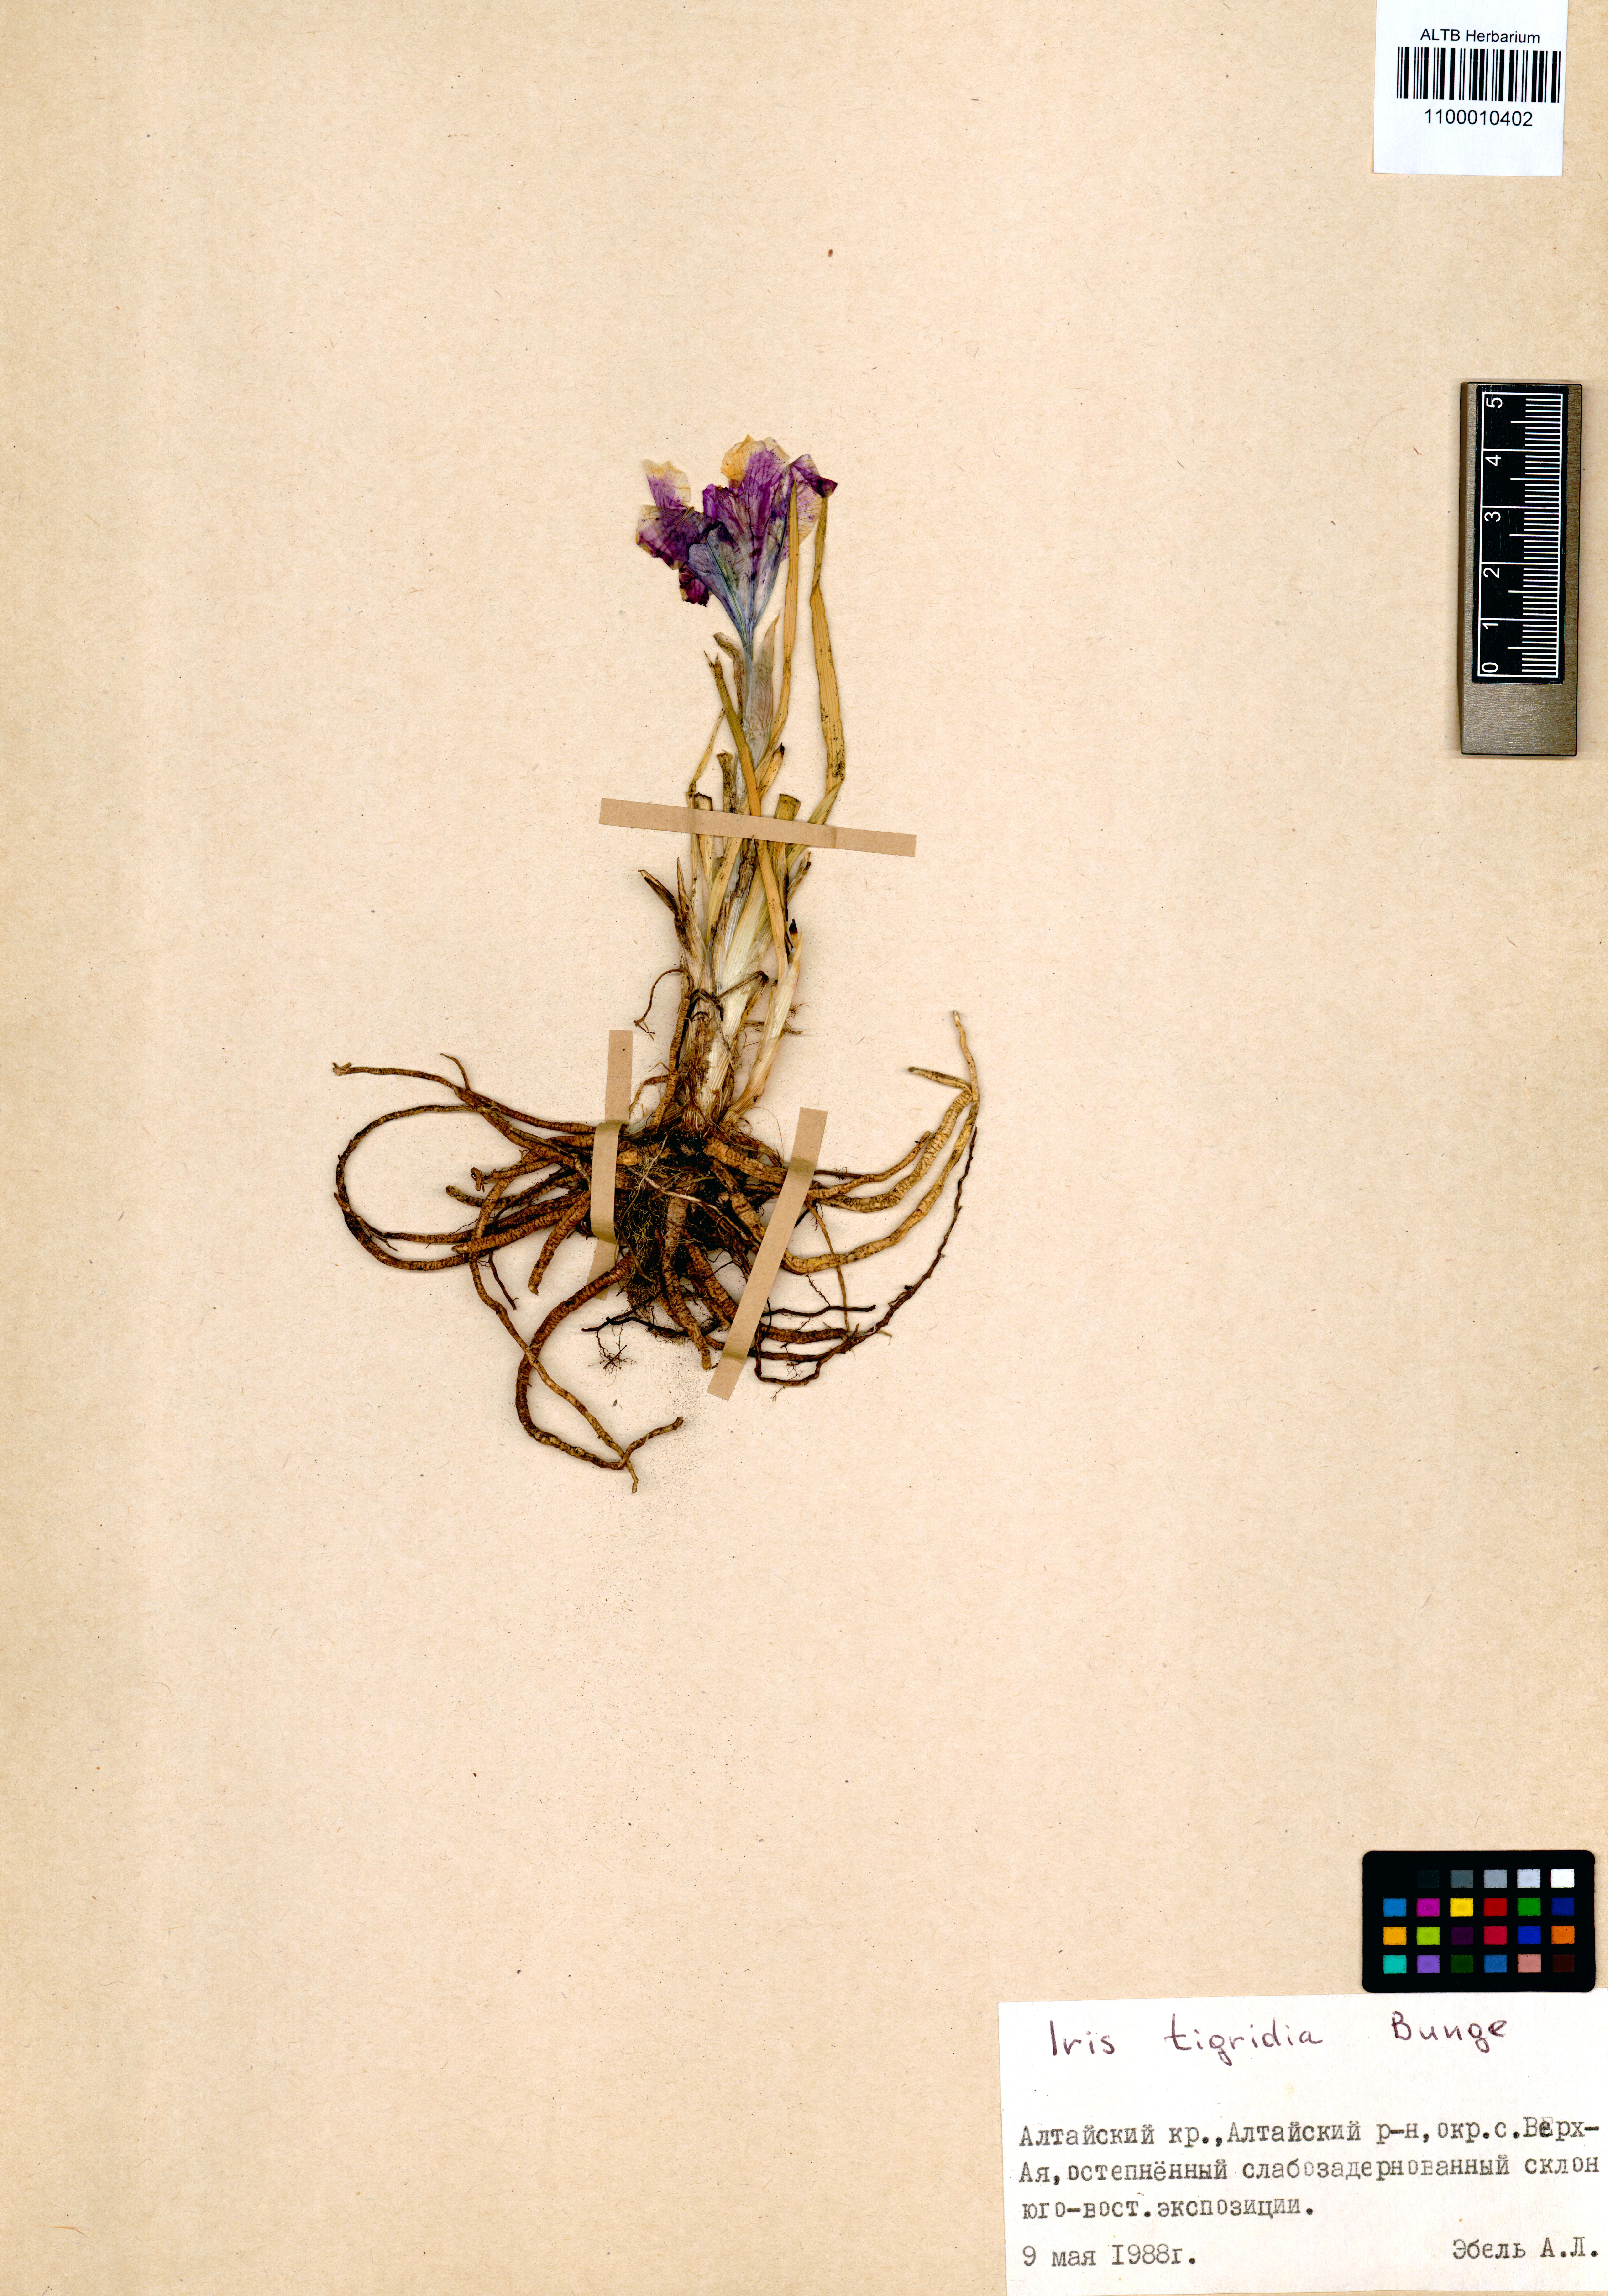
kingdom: Plantae
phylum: Tracheophyta
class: Liliopsida
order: Asparagales
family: Iridaceae
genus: Iris
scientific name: Iris tigridia
